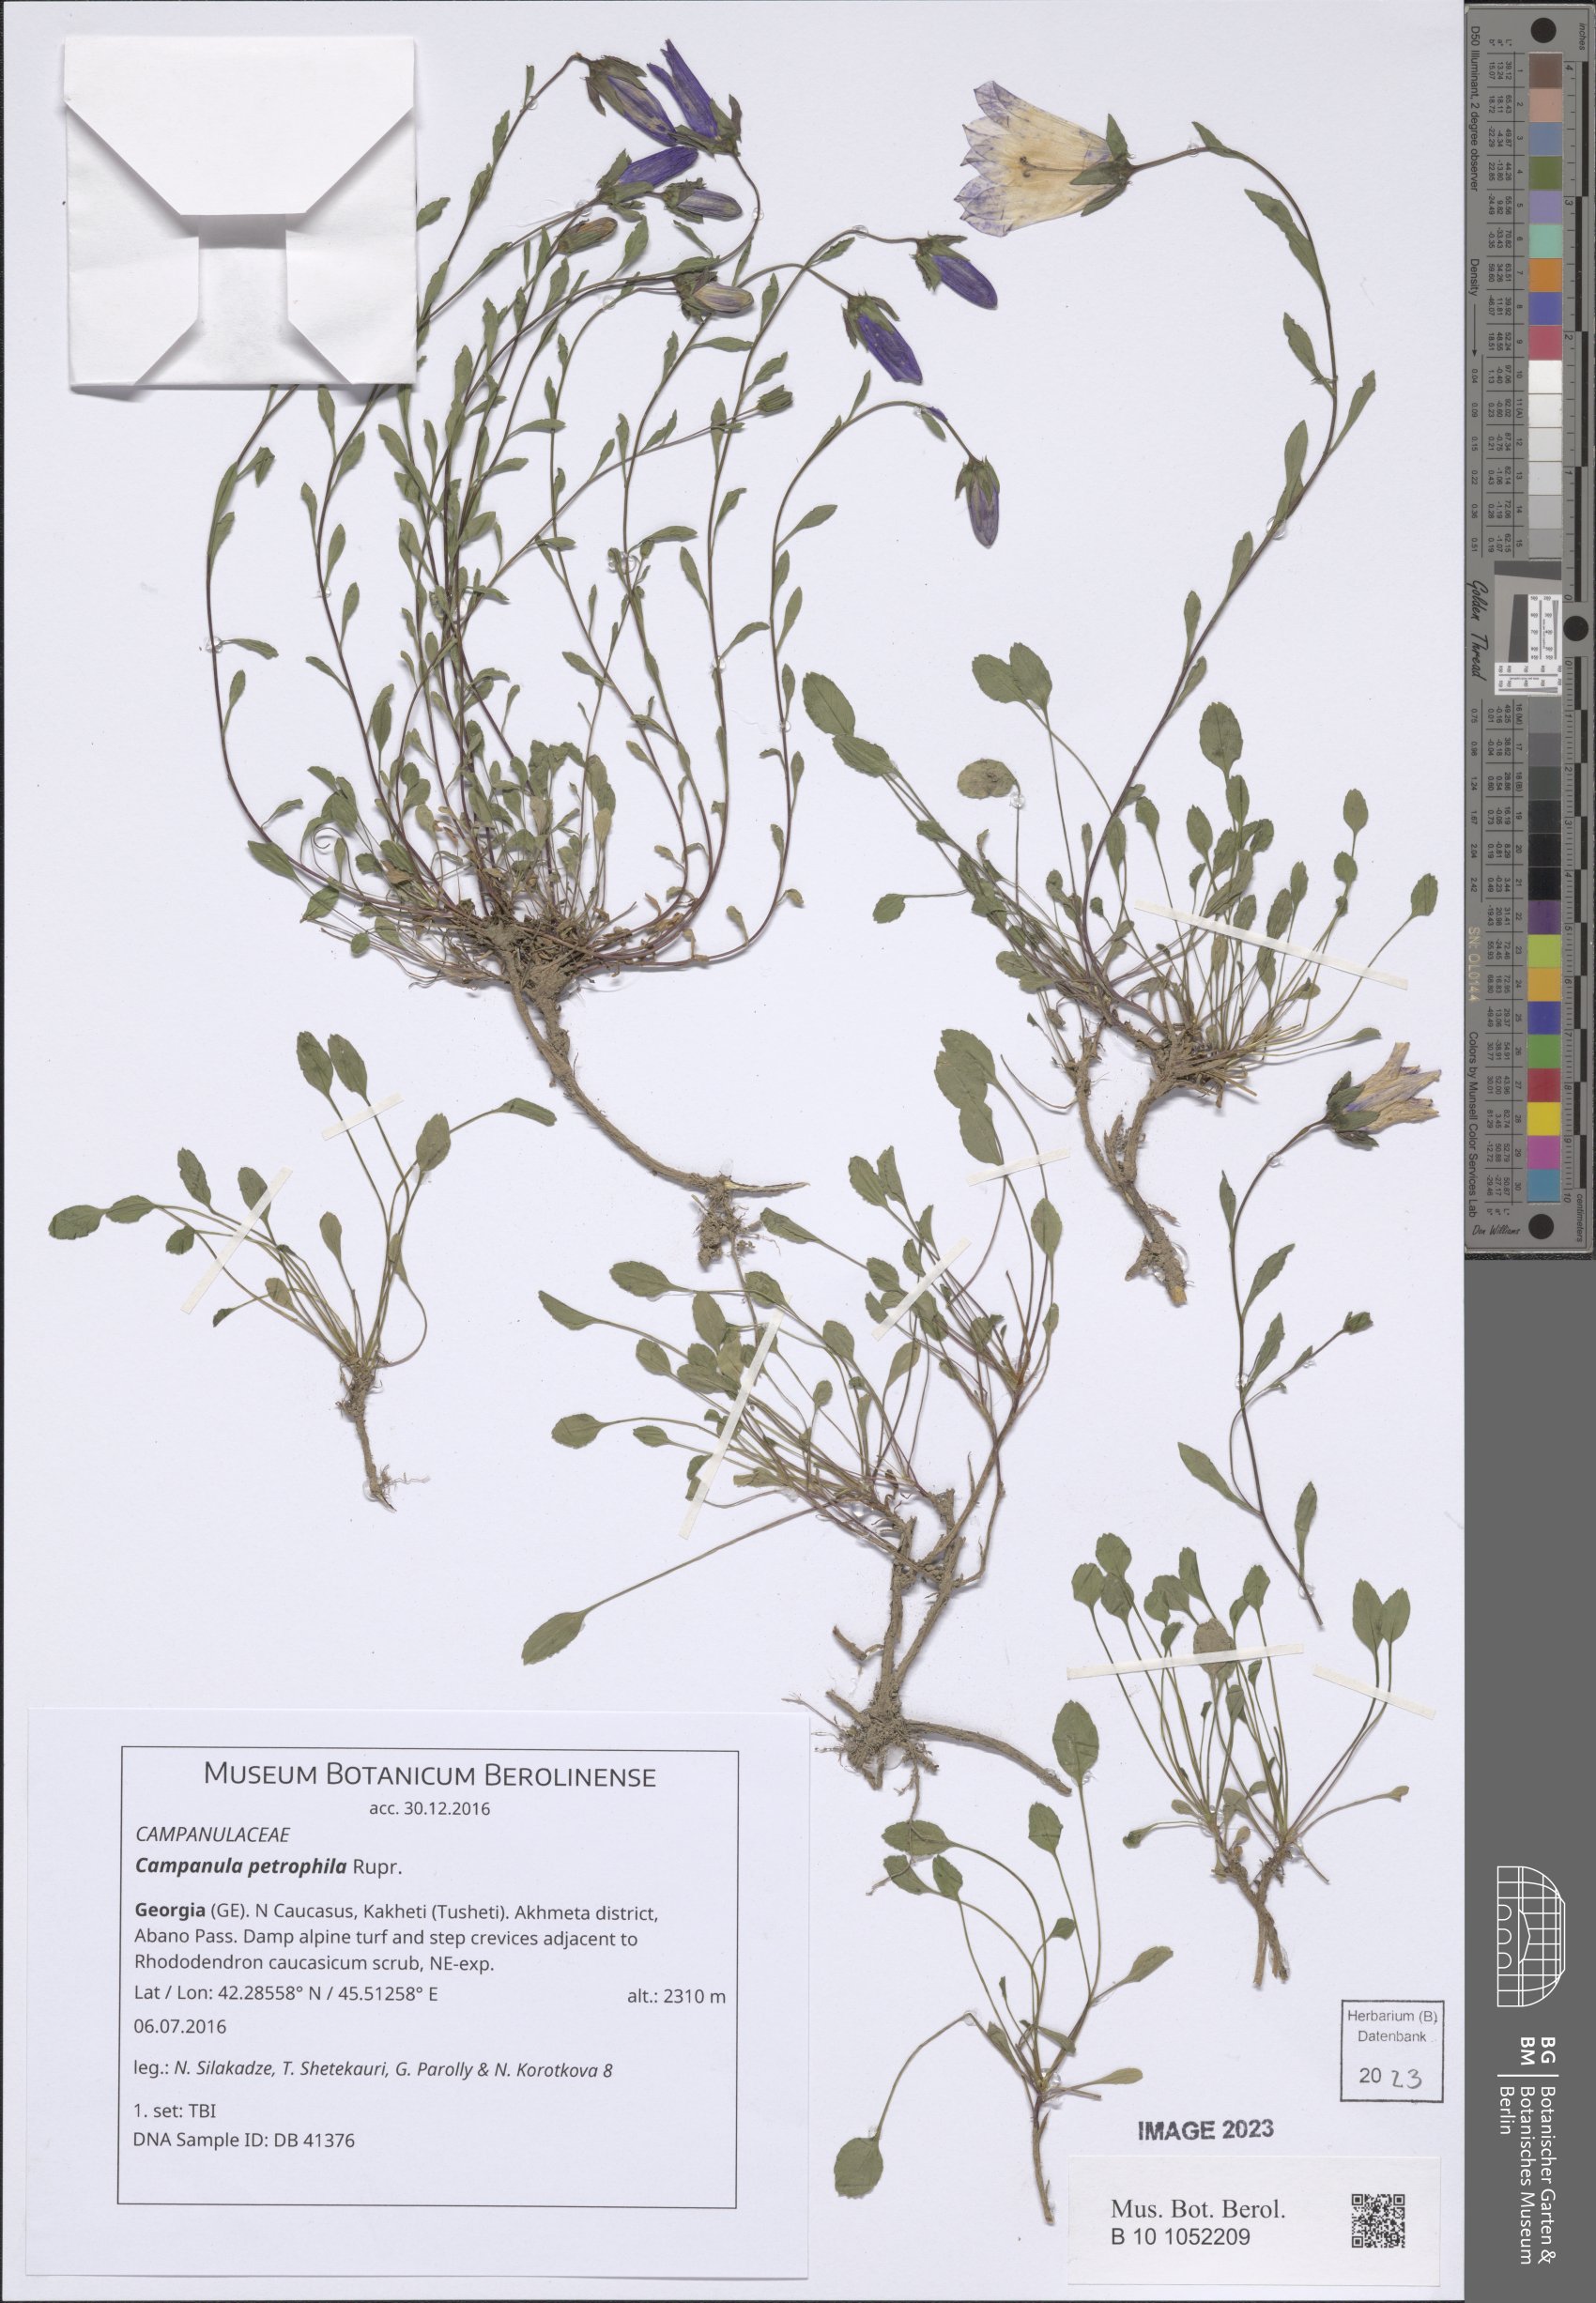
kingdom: Plantae
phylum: Tracheophyta
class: Magnoliopsida
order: Asterales
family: Campanulaceae
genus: Campanula
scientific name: Campanula petrophila
